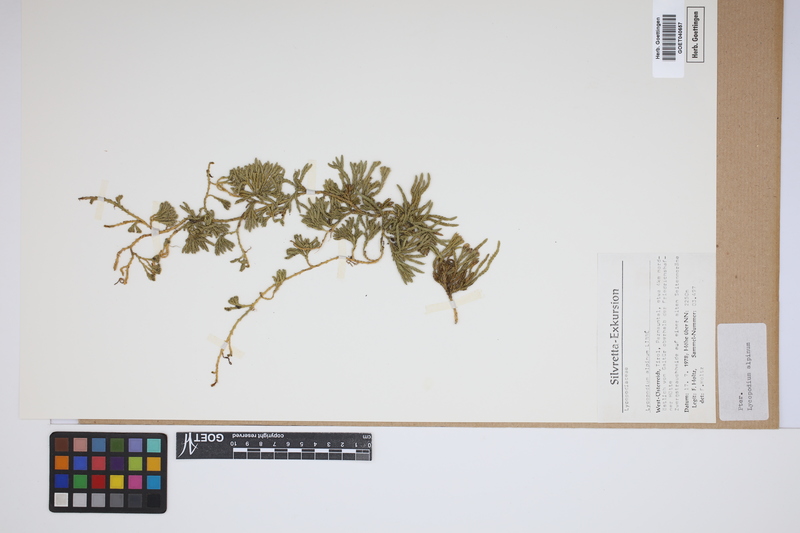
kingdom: Plantae
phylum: Tracheophyta
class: Lycopodiopsida
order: Lycopodiales
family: Lycopodiaceae
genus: Diphasiastrum
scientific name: Diphasiastrum alpinum
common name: Alpine clubmoss
